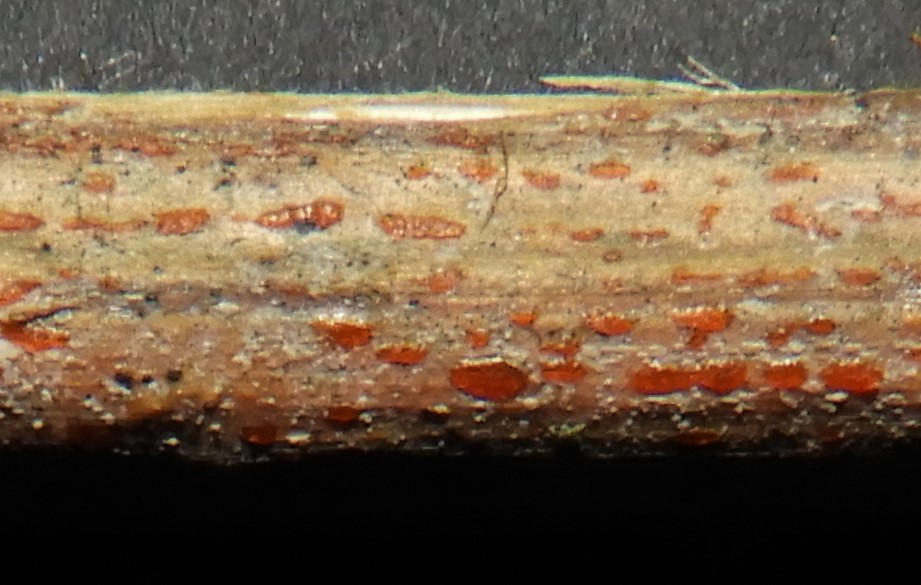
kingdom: Fungi
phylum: Ascomycota
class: Leotiomycetes
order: Helotiales
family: Calloriaceae
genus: Calloria
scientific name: Calloria urticae
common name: nælde-orangeskive
